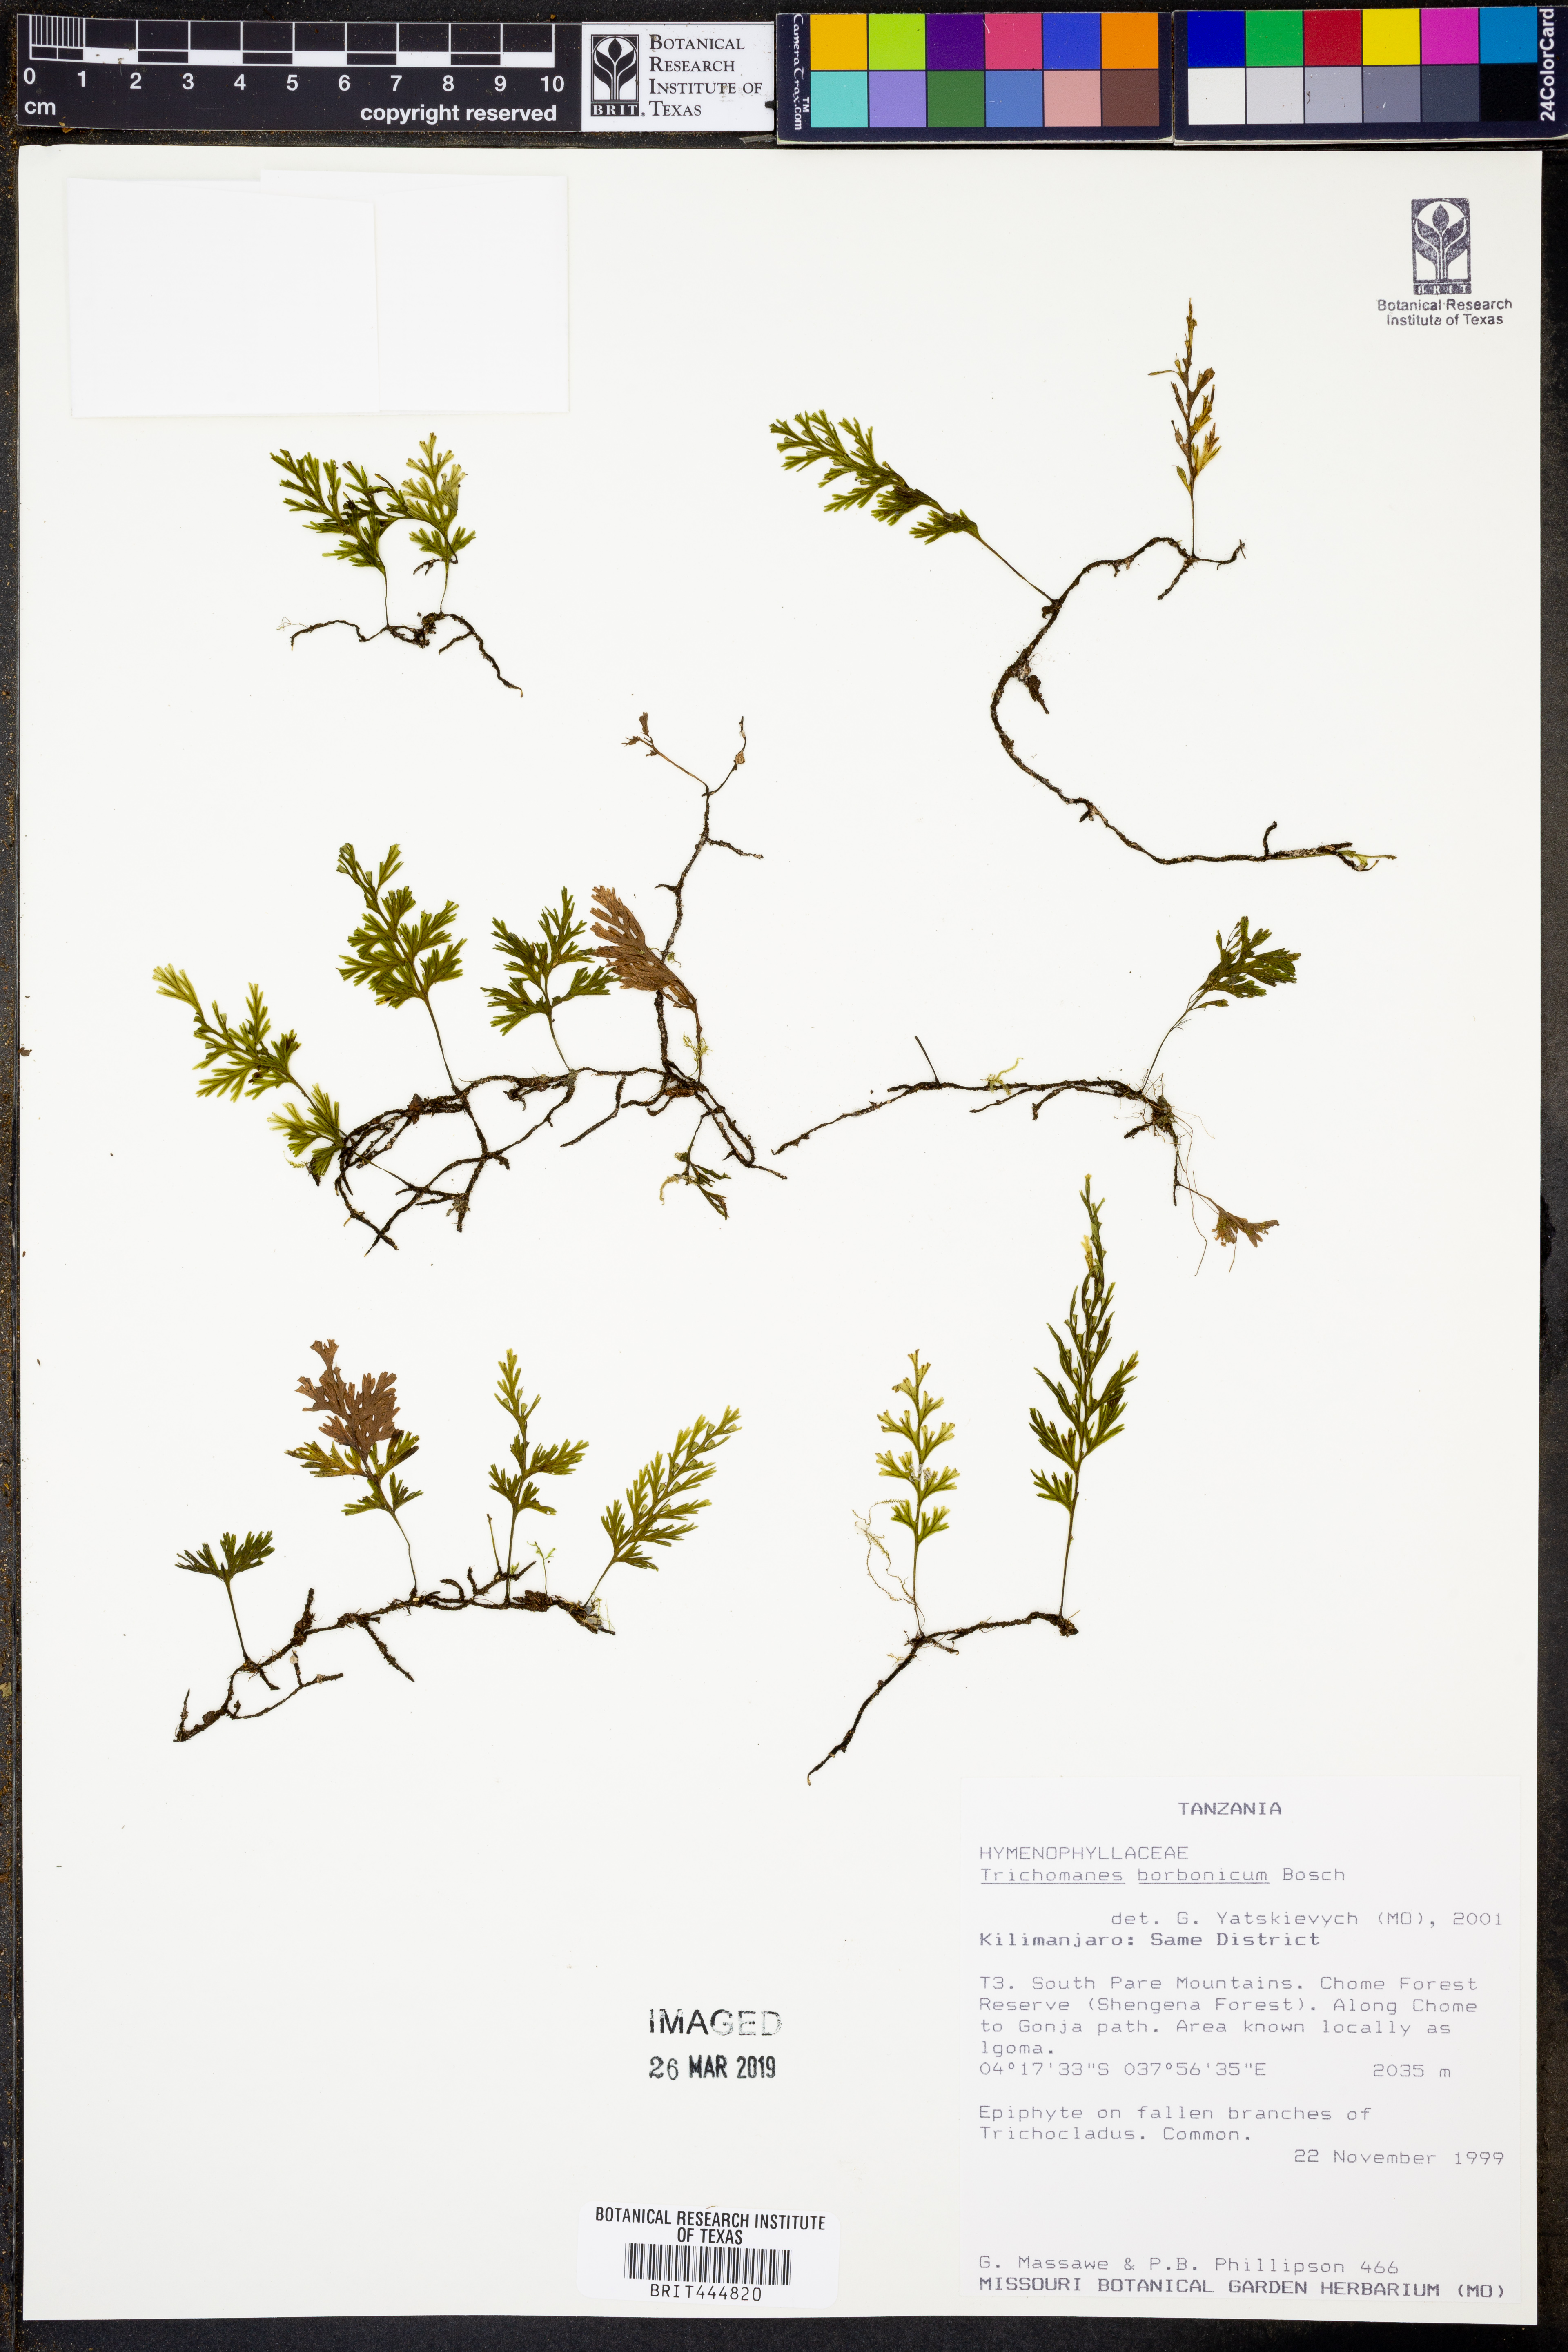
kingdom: Plantae
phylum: Tracheophyta
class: Polypodiopsida
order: Hymenophyllales
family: Hymenophyllaceae
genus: Polyphlebium
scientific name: Polyphlebium diaphanum
